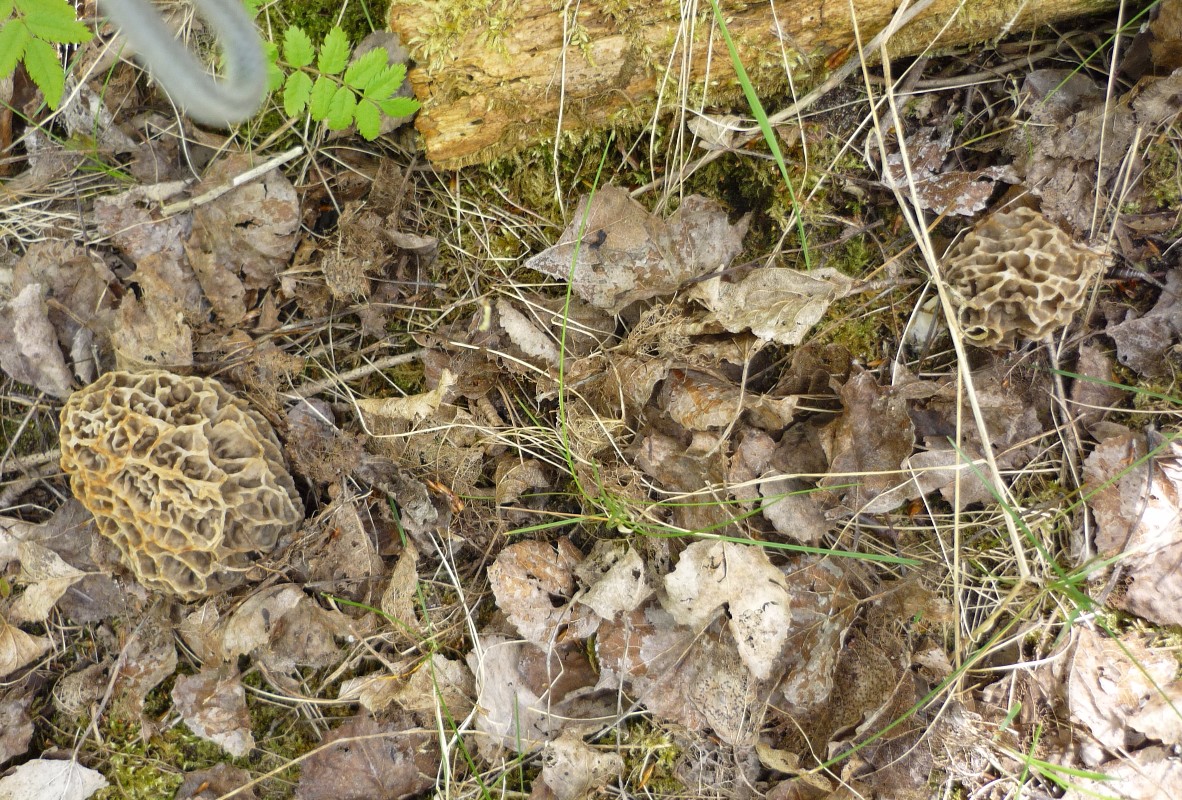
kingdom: Fungi
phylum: Ascomycota
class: Pezizomycetes
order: Pezizales
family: Morchellaceae
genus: Morchella
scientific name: Morchella esculenta
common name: almindelig morkel
